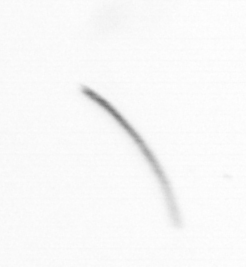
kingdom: Chromista
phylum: Ochrophyta
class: Bacillariophyceae
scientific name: Bacillariophyceae
